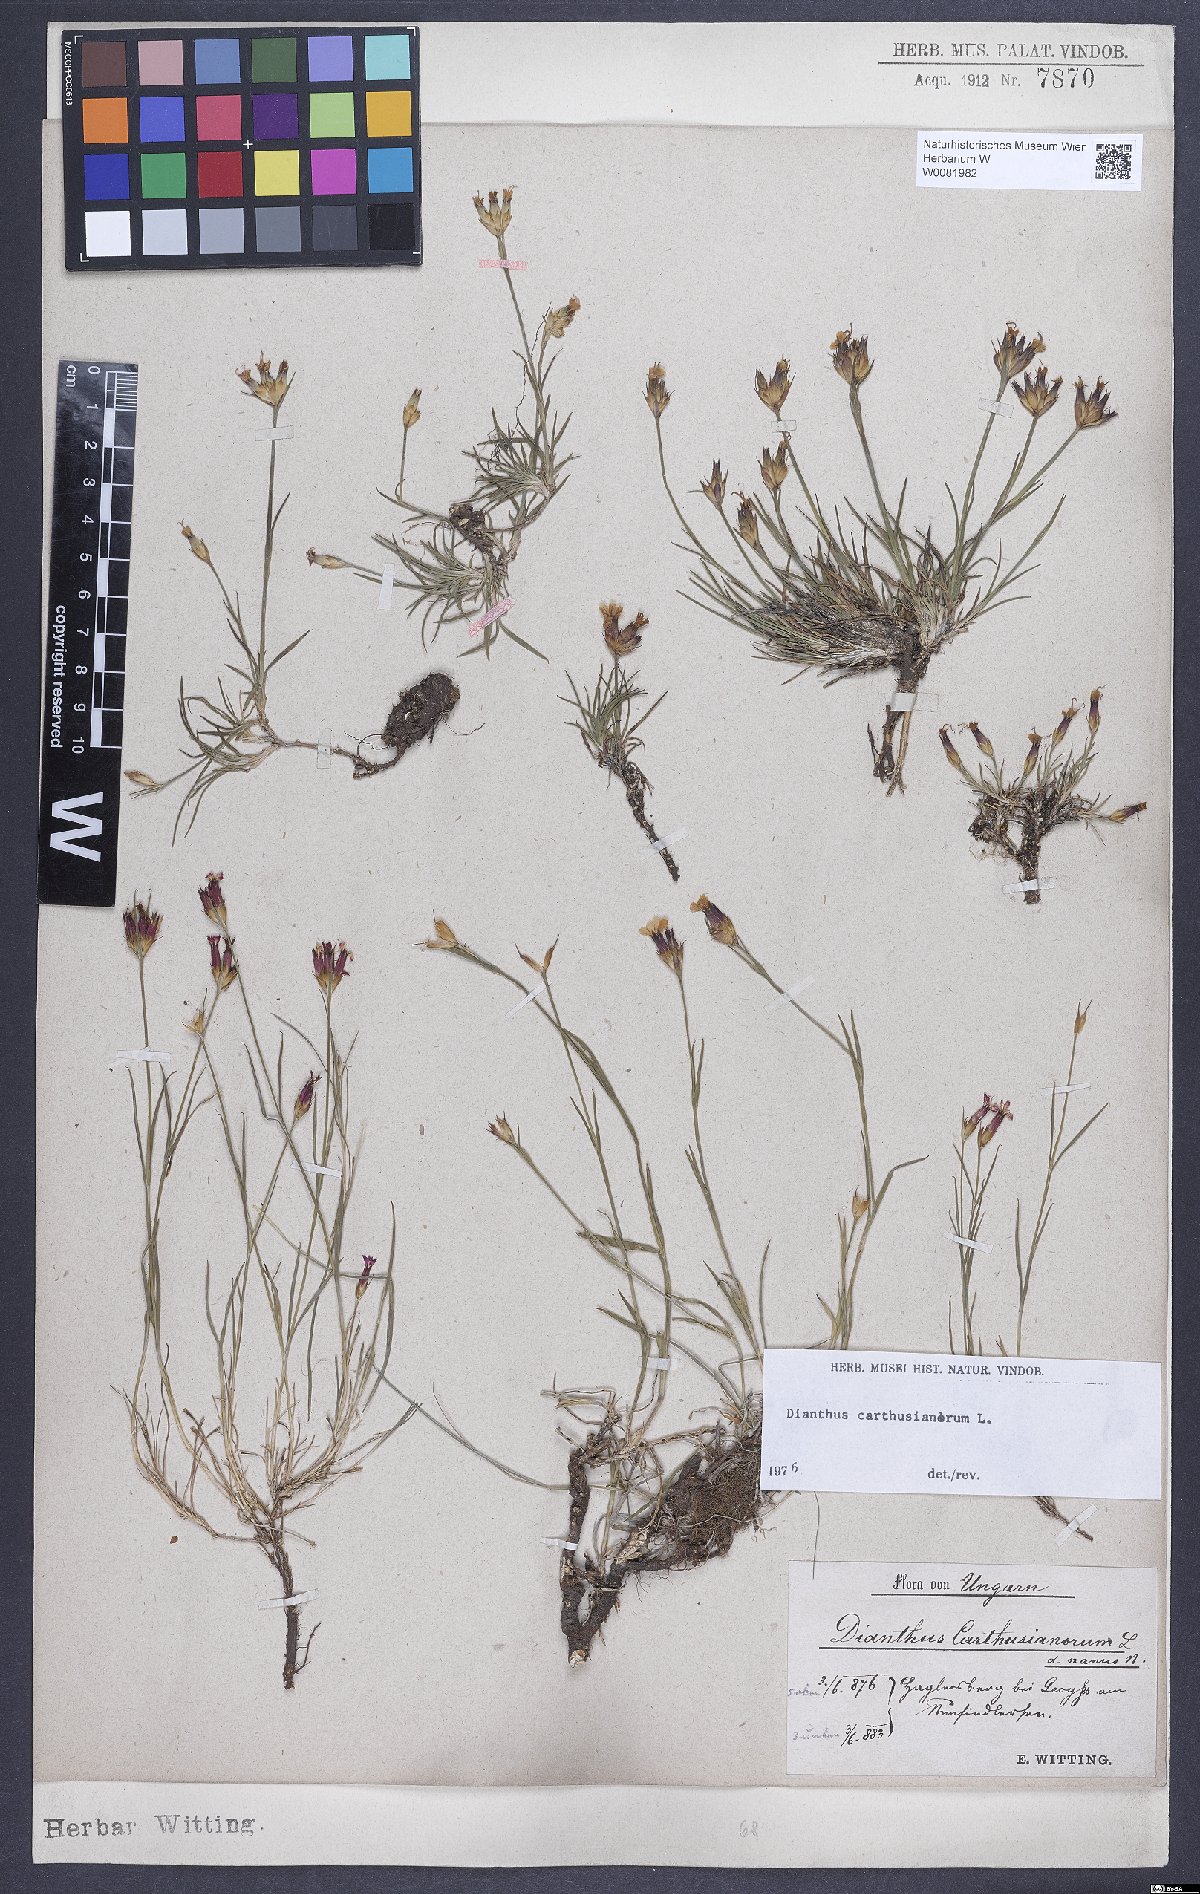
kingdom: Plantae
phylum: Tracheophyta
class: Magnoliopsida
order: Caryophyllales
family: Caryophyllaceae
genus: Dianthus
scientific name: Dianthus carthusianorum
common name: Carthusian pink
